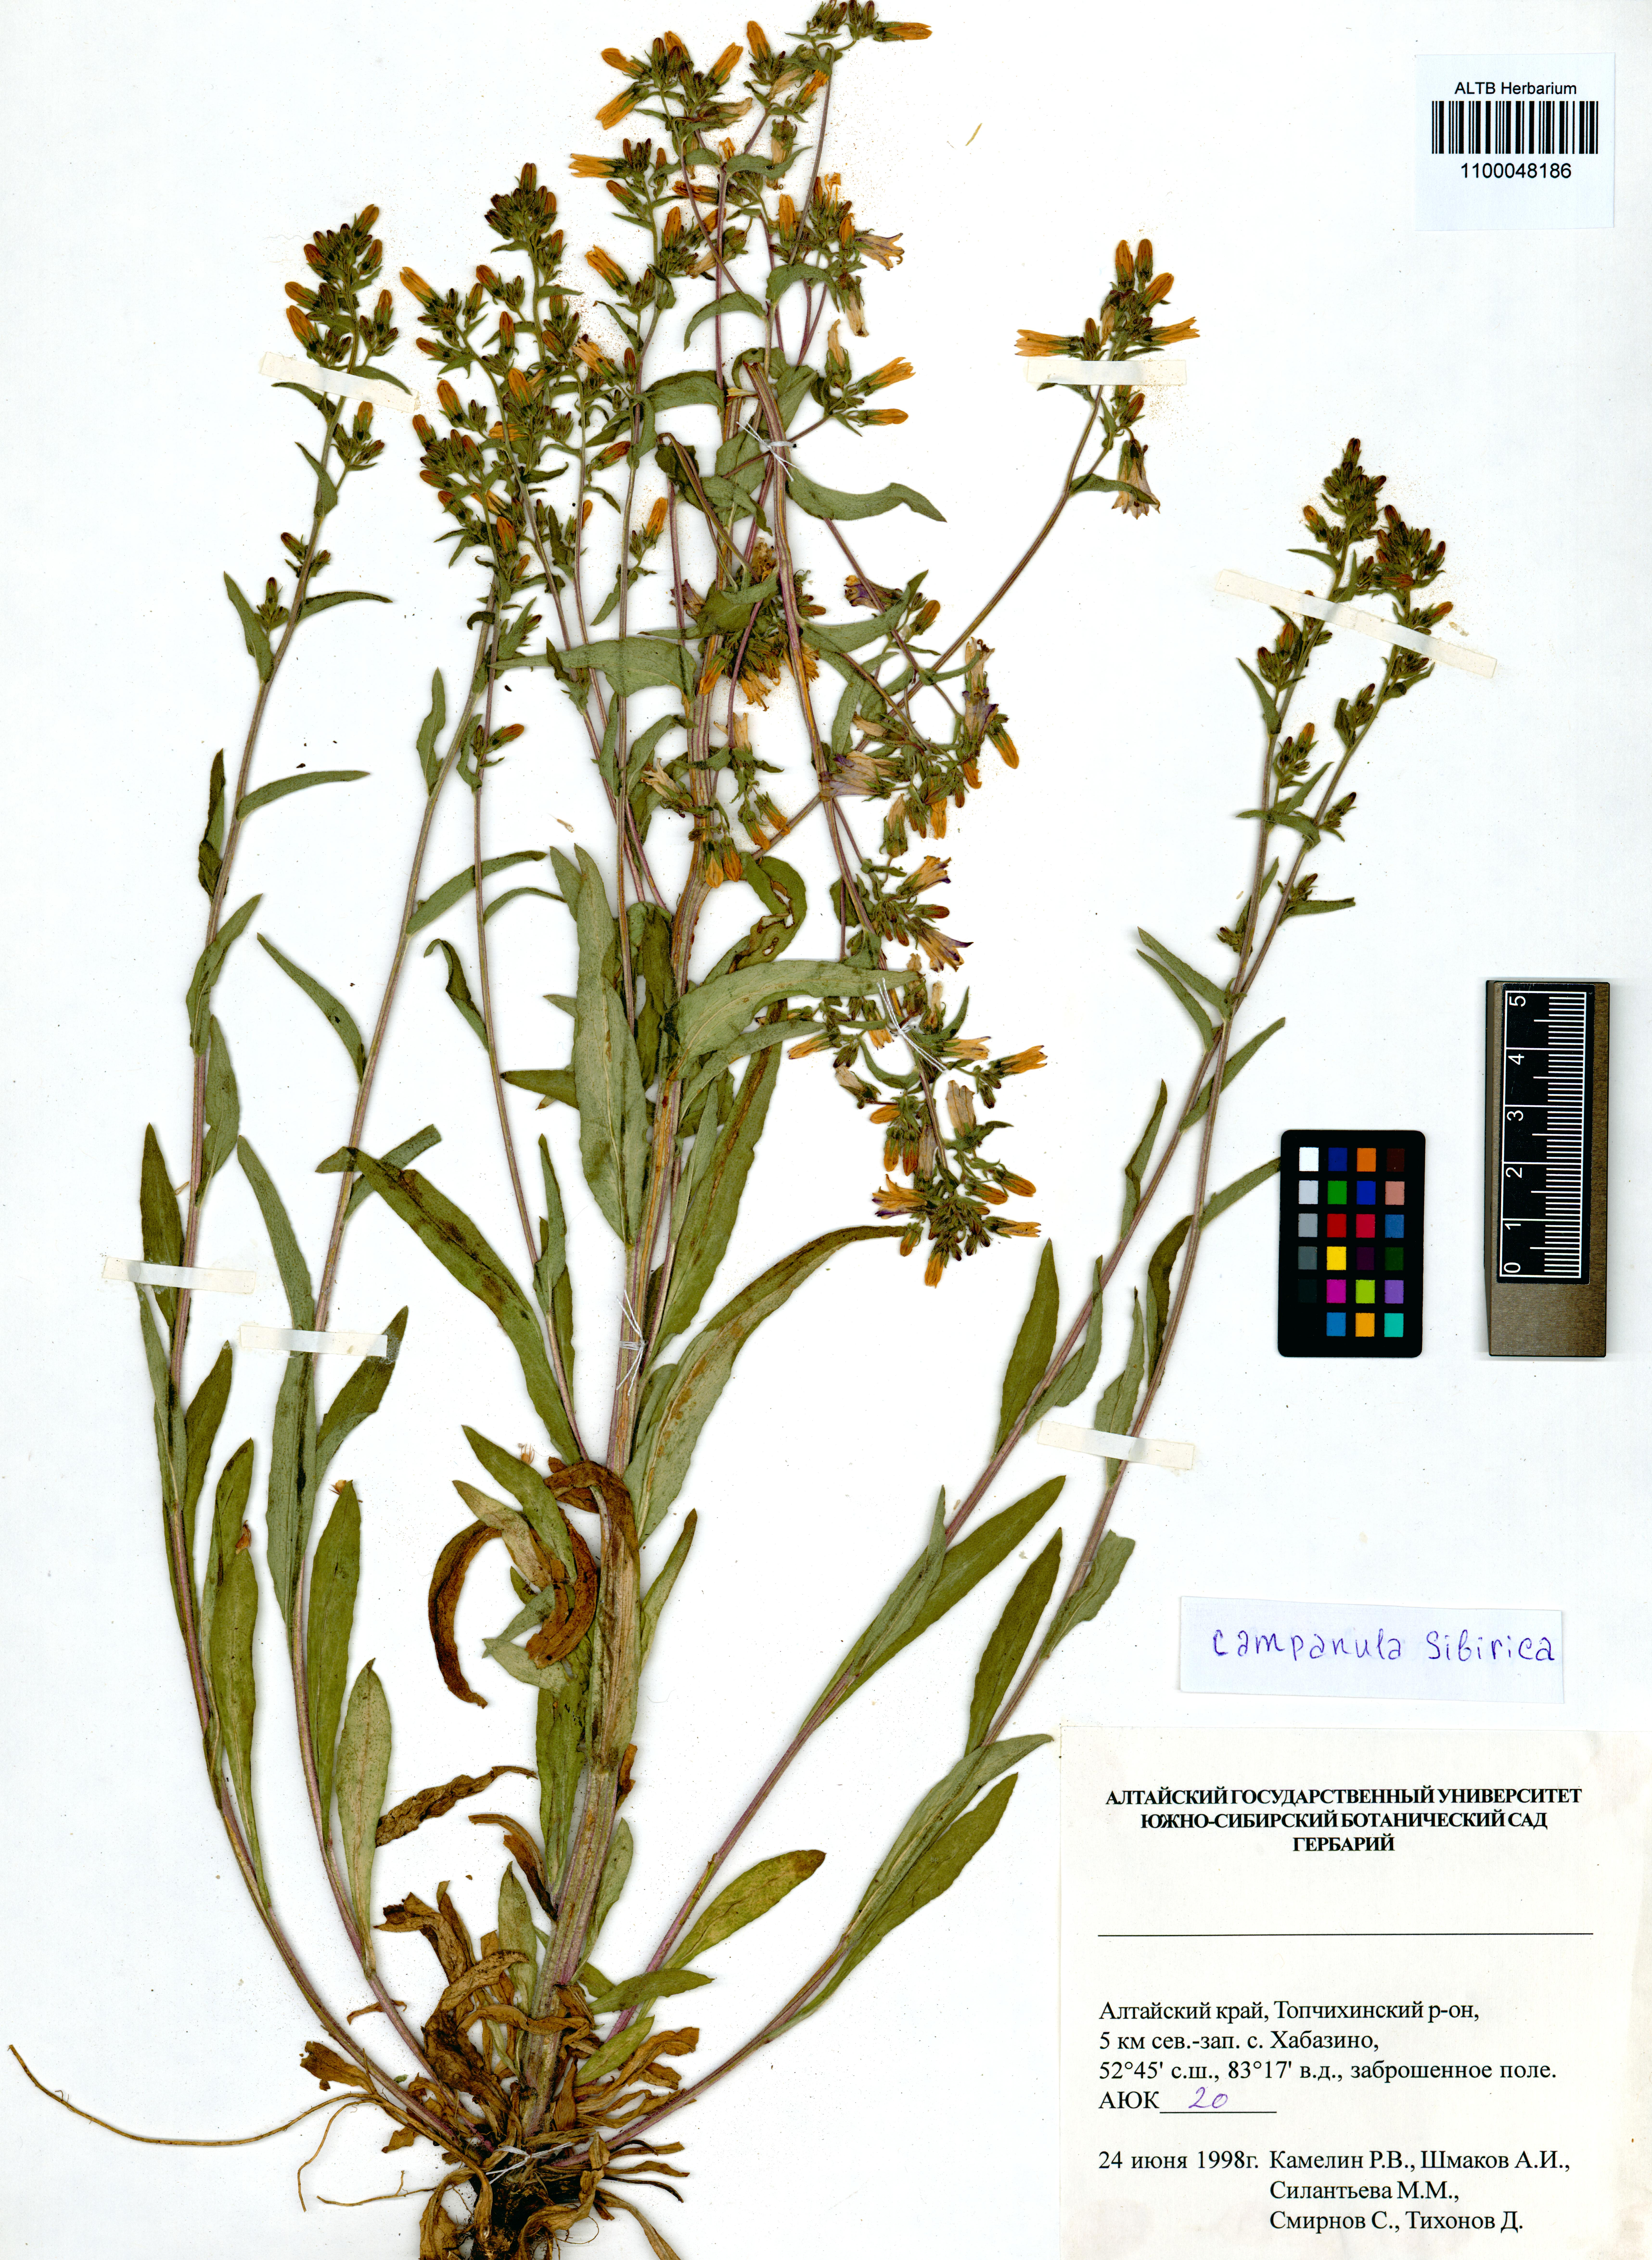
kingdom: Plantae
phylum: Tracheophyta
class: Magnoliopsida
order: Asterales
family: Campanulaceae
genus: Campanula
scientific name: Campanula sibirica
